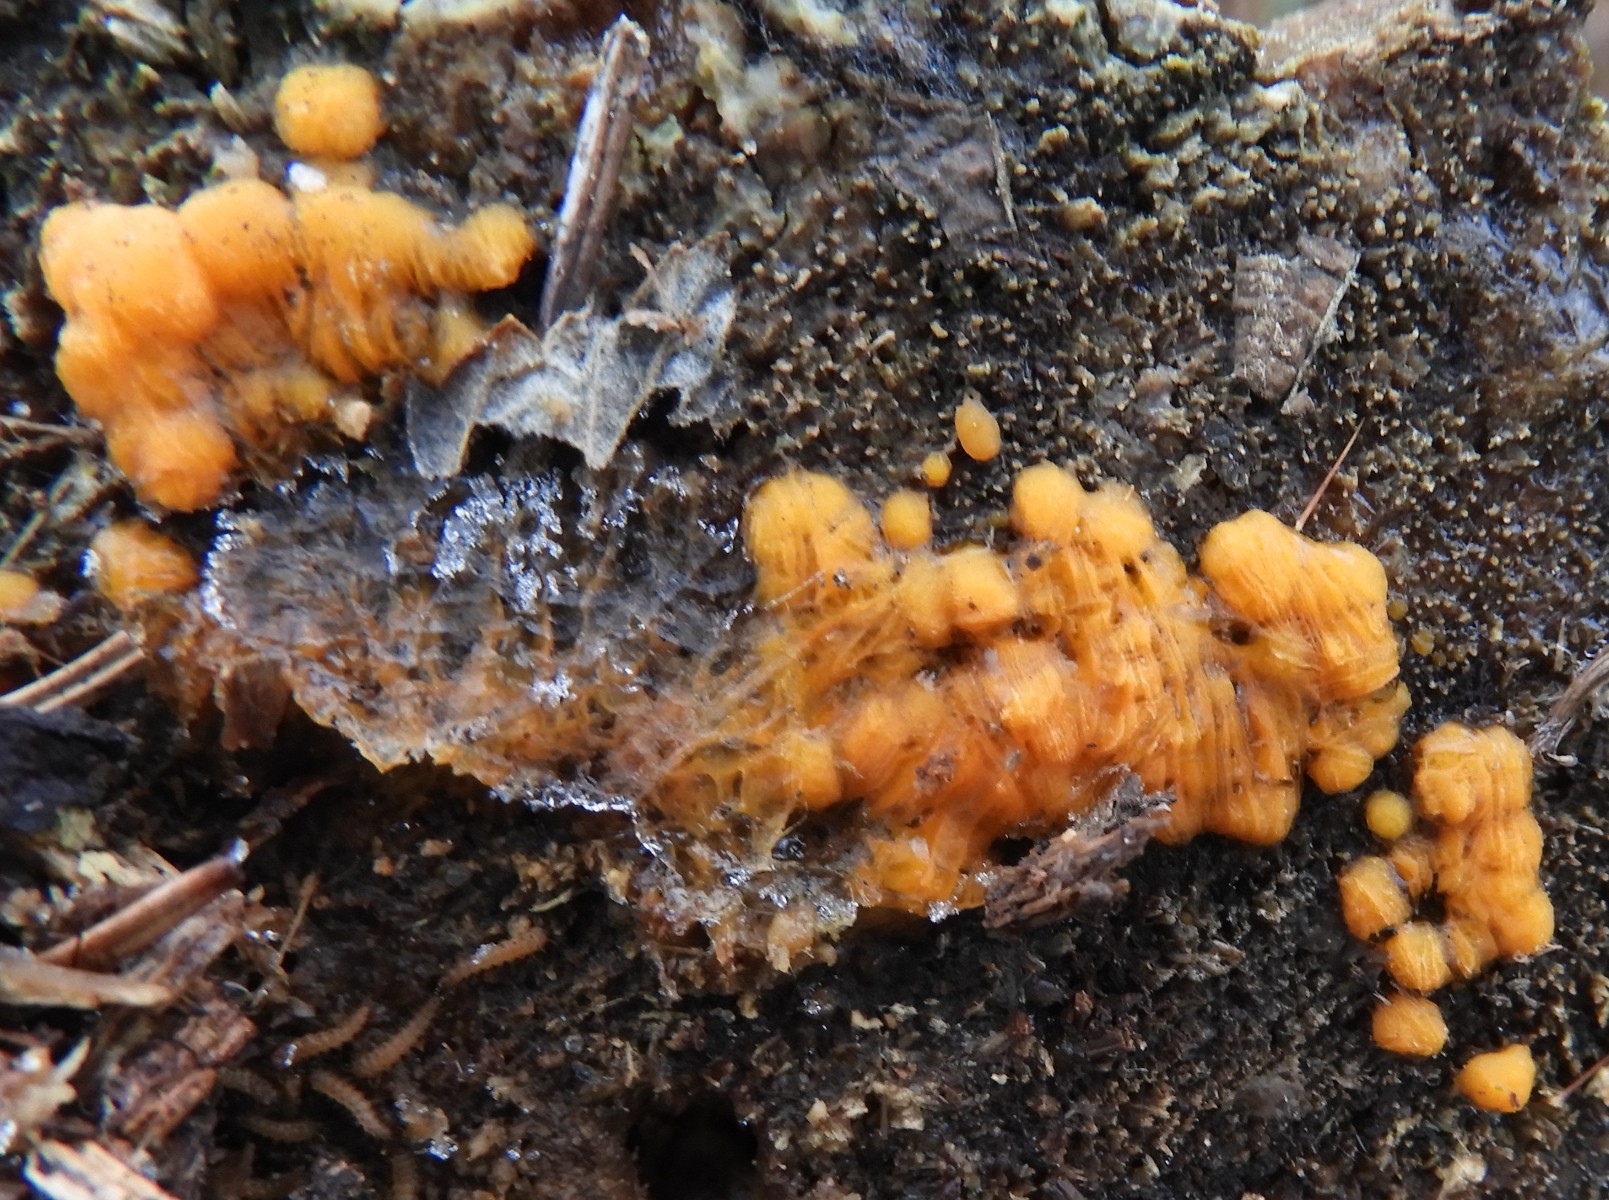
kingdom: Fungi
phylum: Basidiomycota
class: Dacrymycetes
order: Dacrymycetales
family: Dacrymycetaceae
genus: Dacrymyces
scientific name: Dacrymyces stillatus
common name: almindelig tåresvamp
